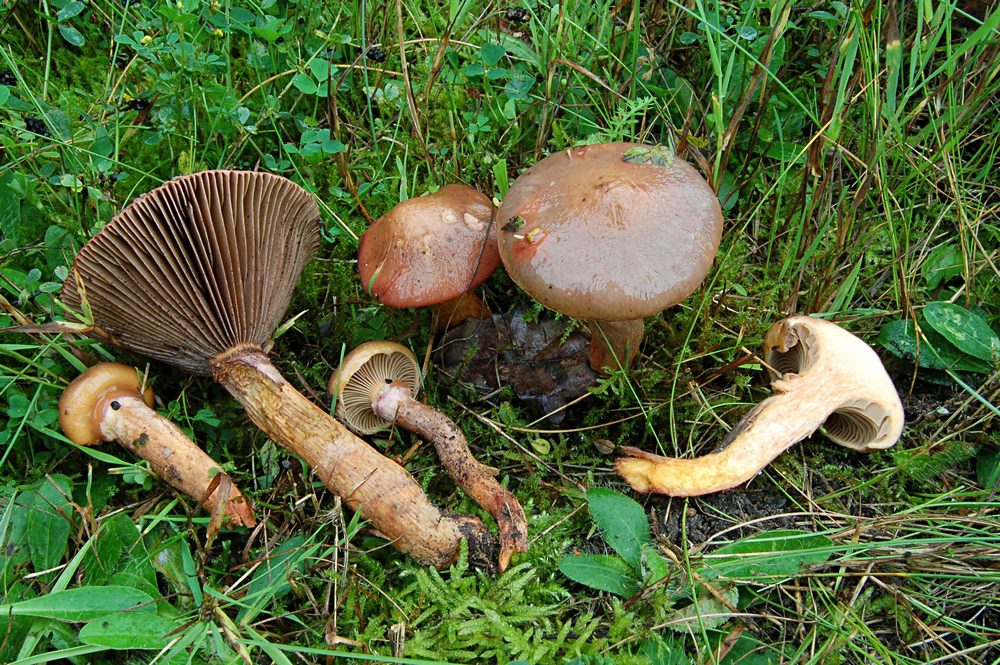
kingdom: Fungi
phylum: Basidiomycota
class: Agaricomycetes
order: Boletales
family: Gomphidiaceae
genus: Gomphidius
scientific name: Gomphidius glutinosus
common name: grå slimslør
